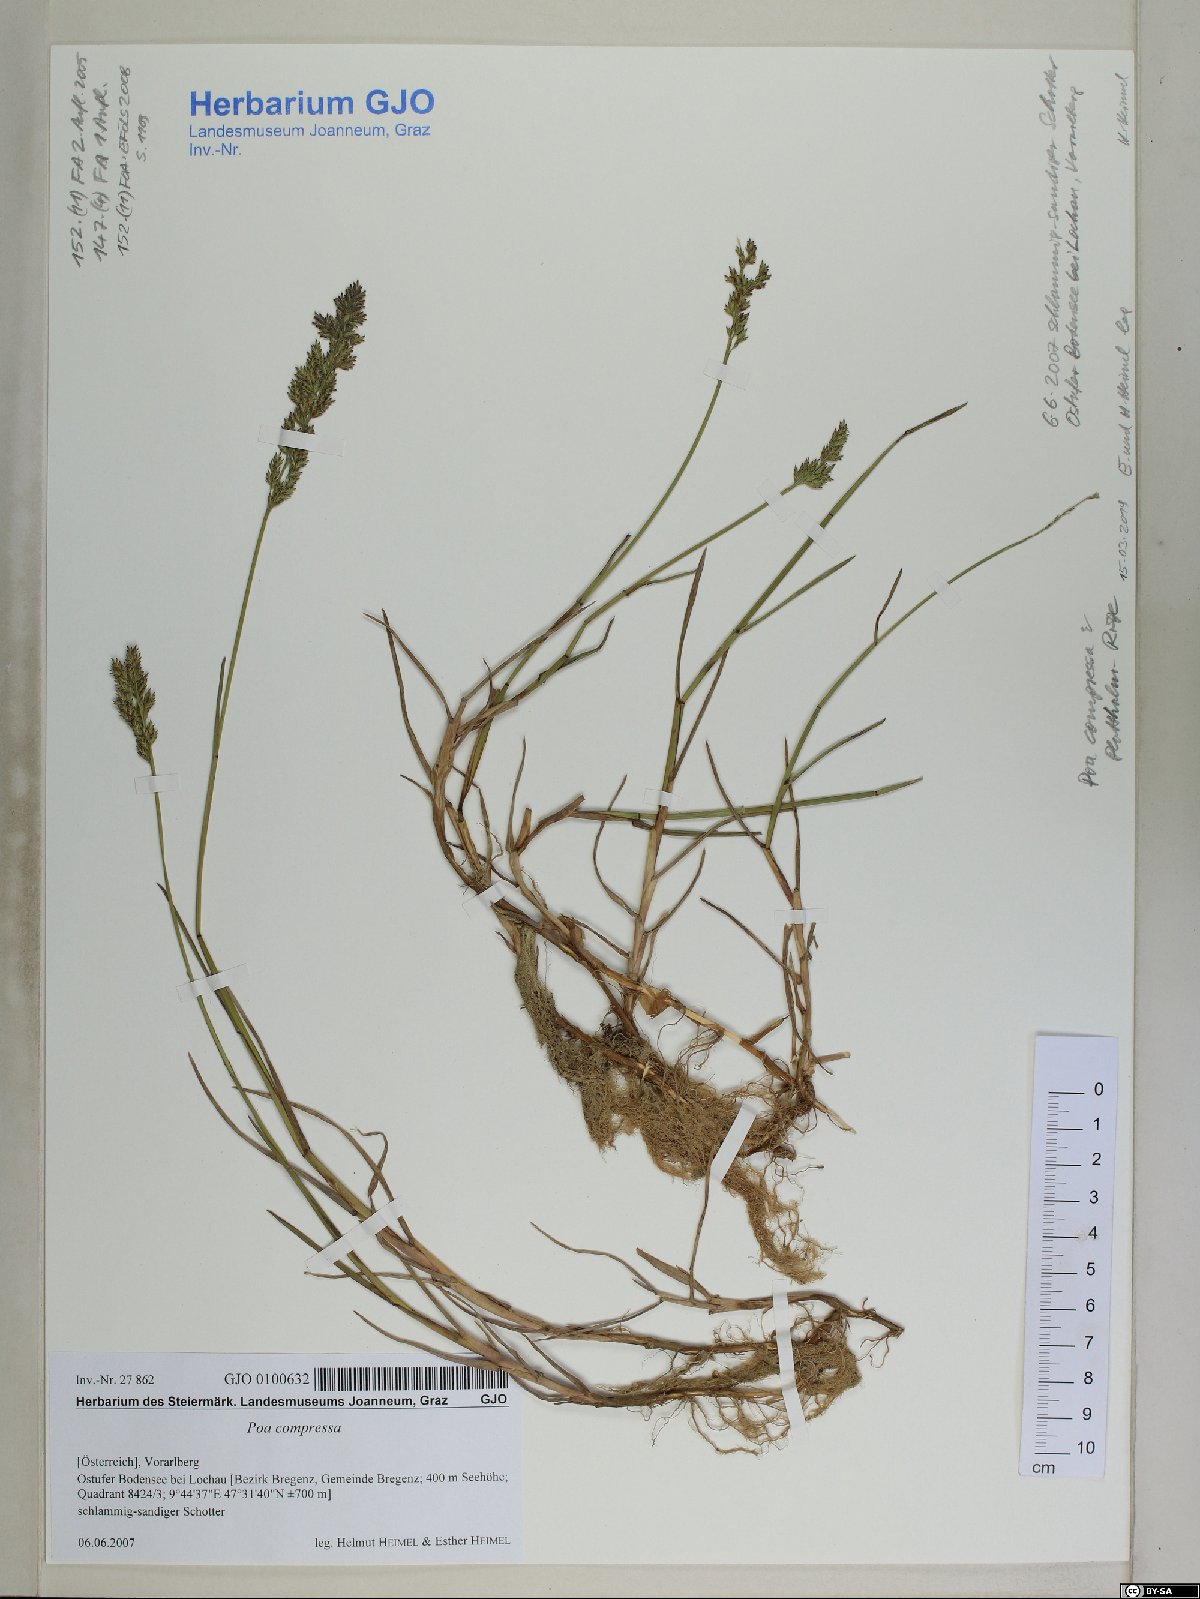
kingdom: Plantae
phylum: Tracheophyta
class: Liliopsida
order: Poales
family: Poaceae
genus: Poa
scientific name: Poa compressa
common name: Canada bluegrass
